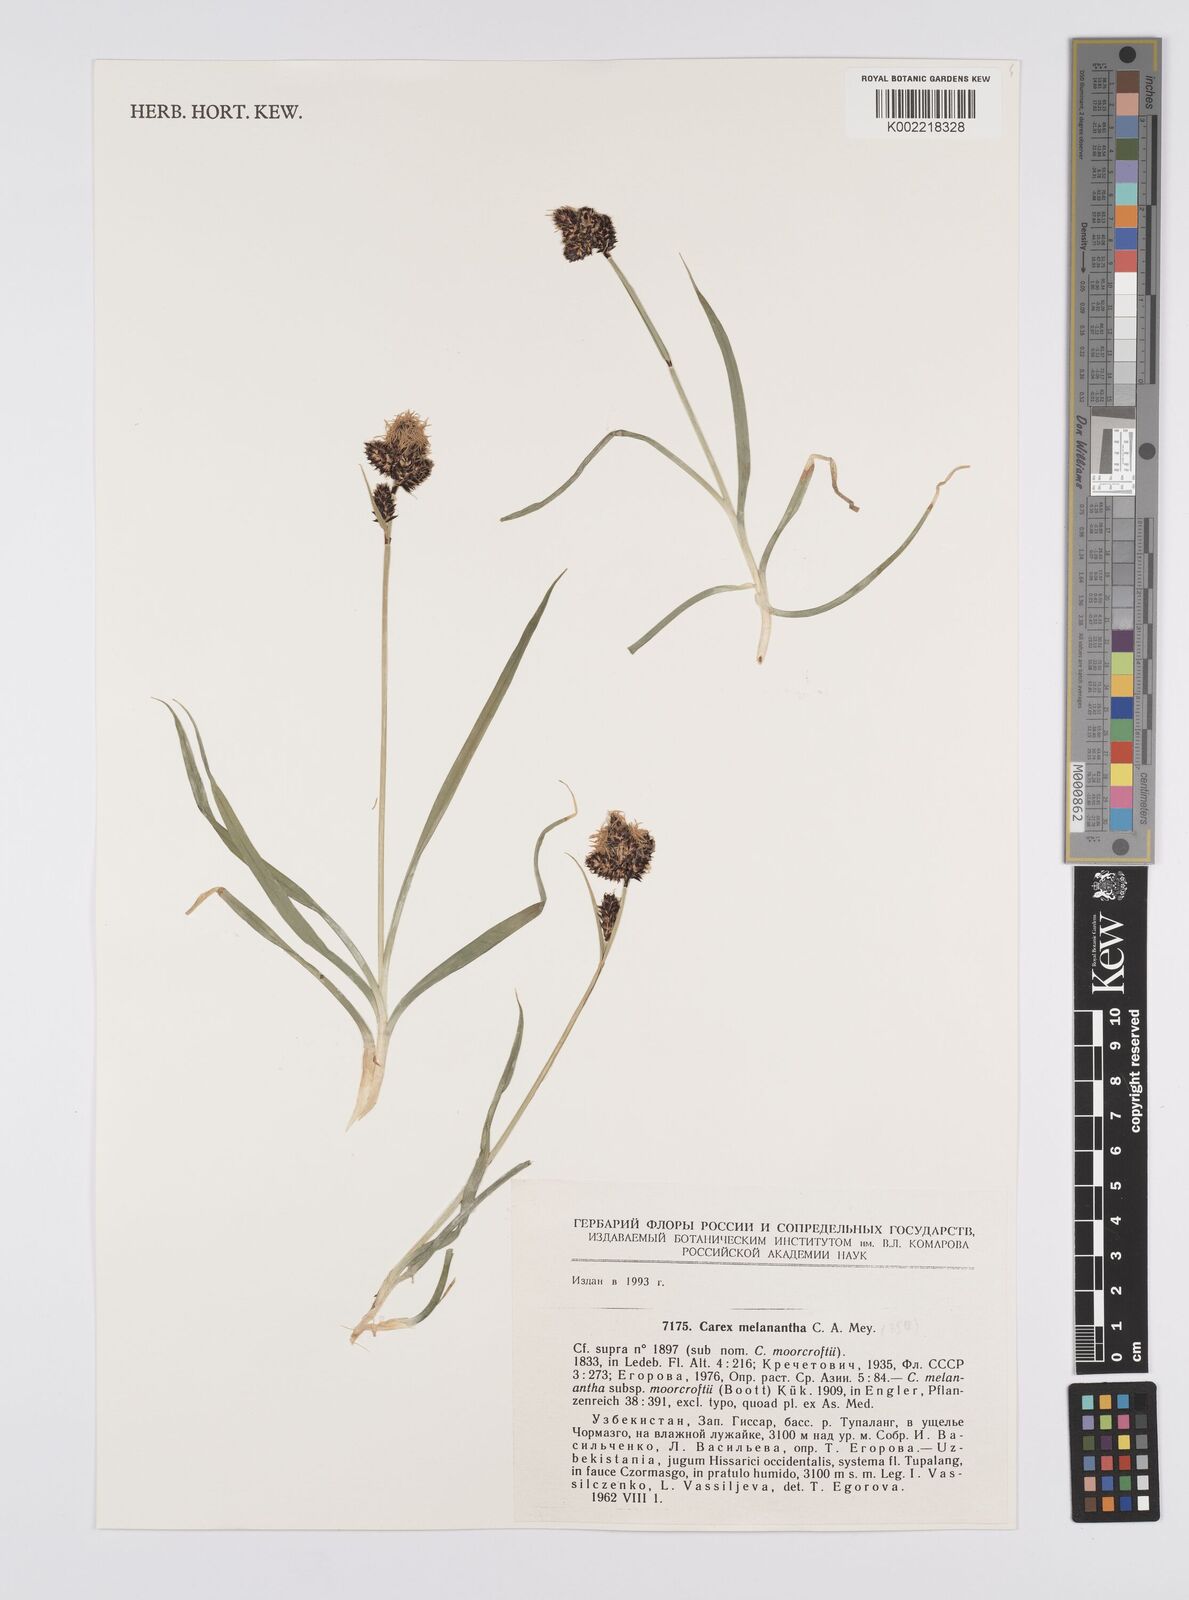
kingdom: Plantae
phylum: Tracheophyta
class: Liliopsida
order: Poales
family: Cyperaceae
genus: Carex
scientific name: Carex melanantha
